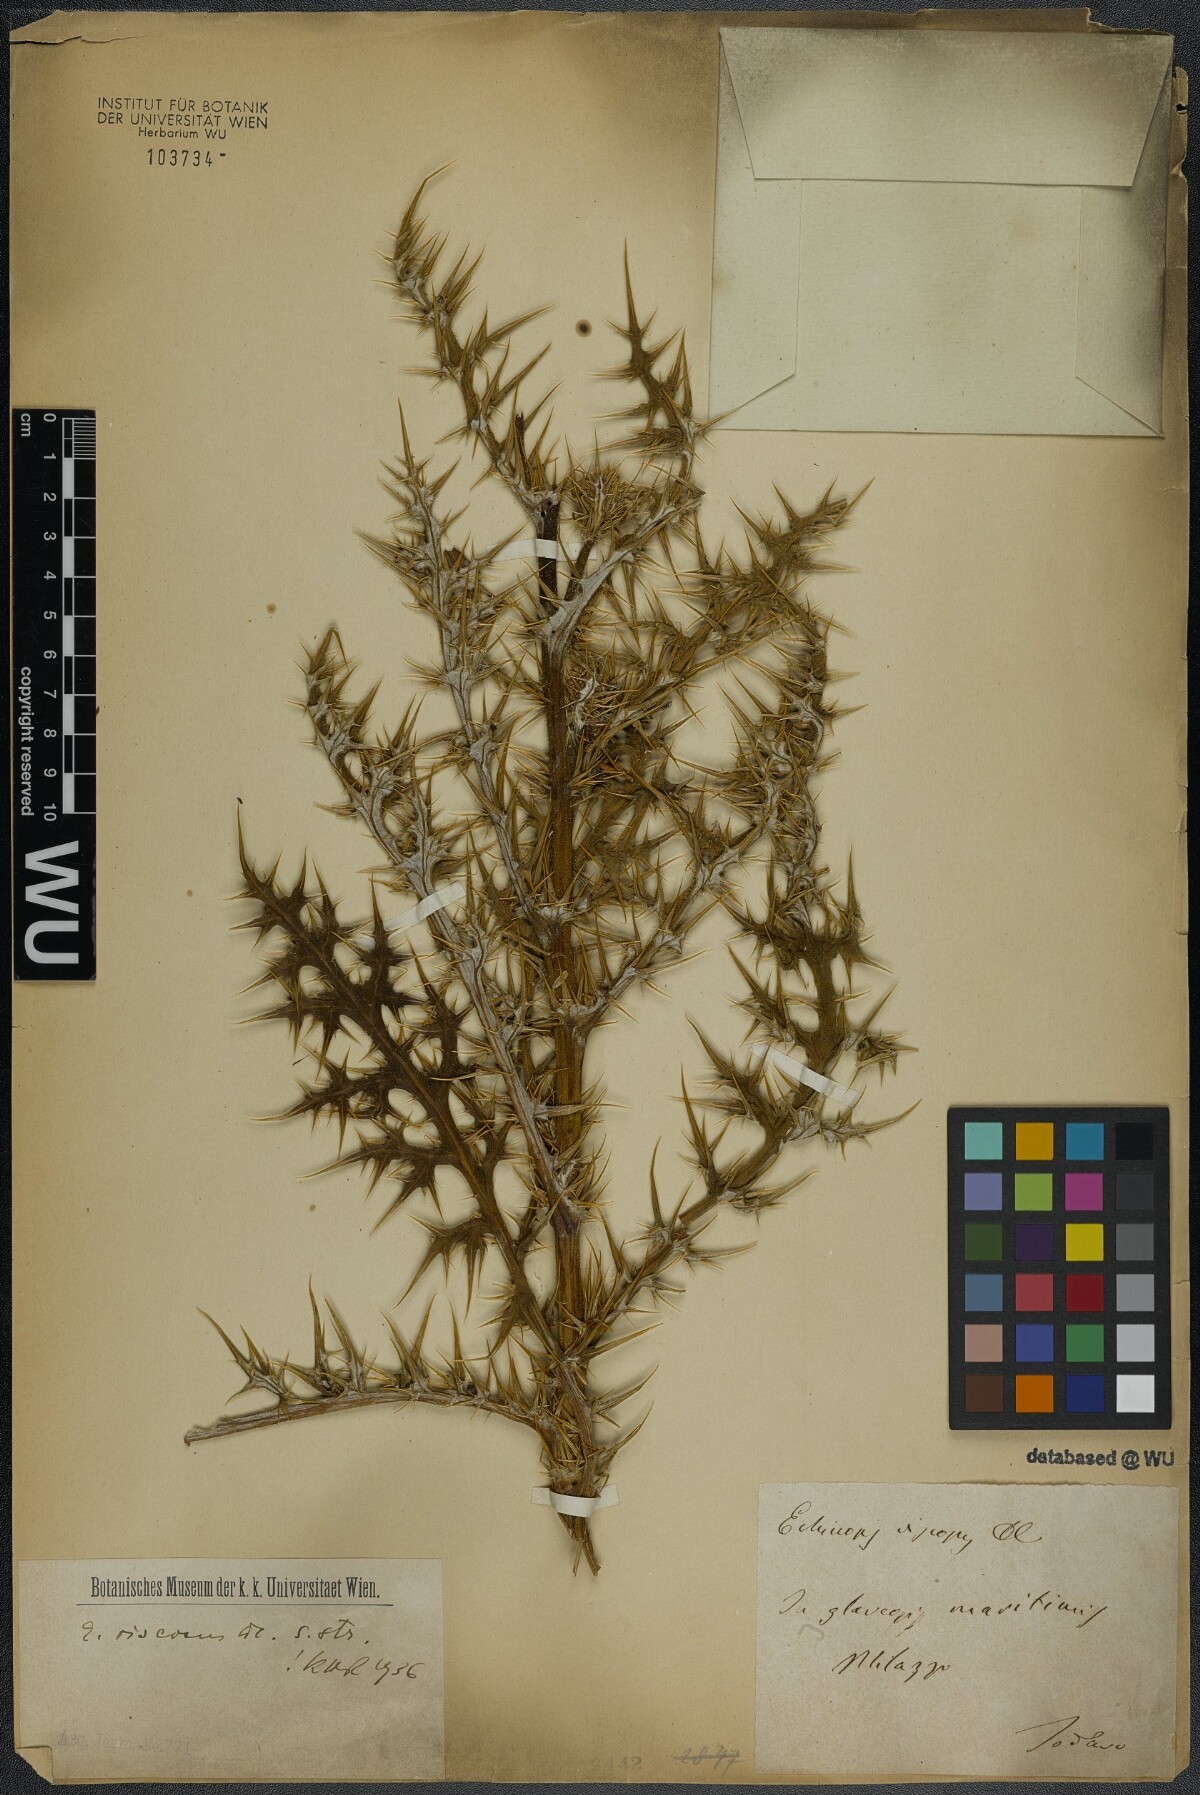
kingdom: Plantae
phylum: Tracheophyta
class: Magnoliopsida
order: Asterales
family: Asteraceae
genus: Echinops
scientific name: Echinops spinosissimus
